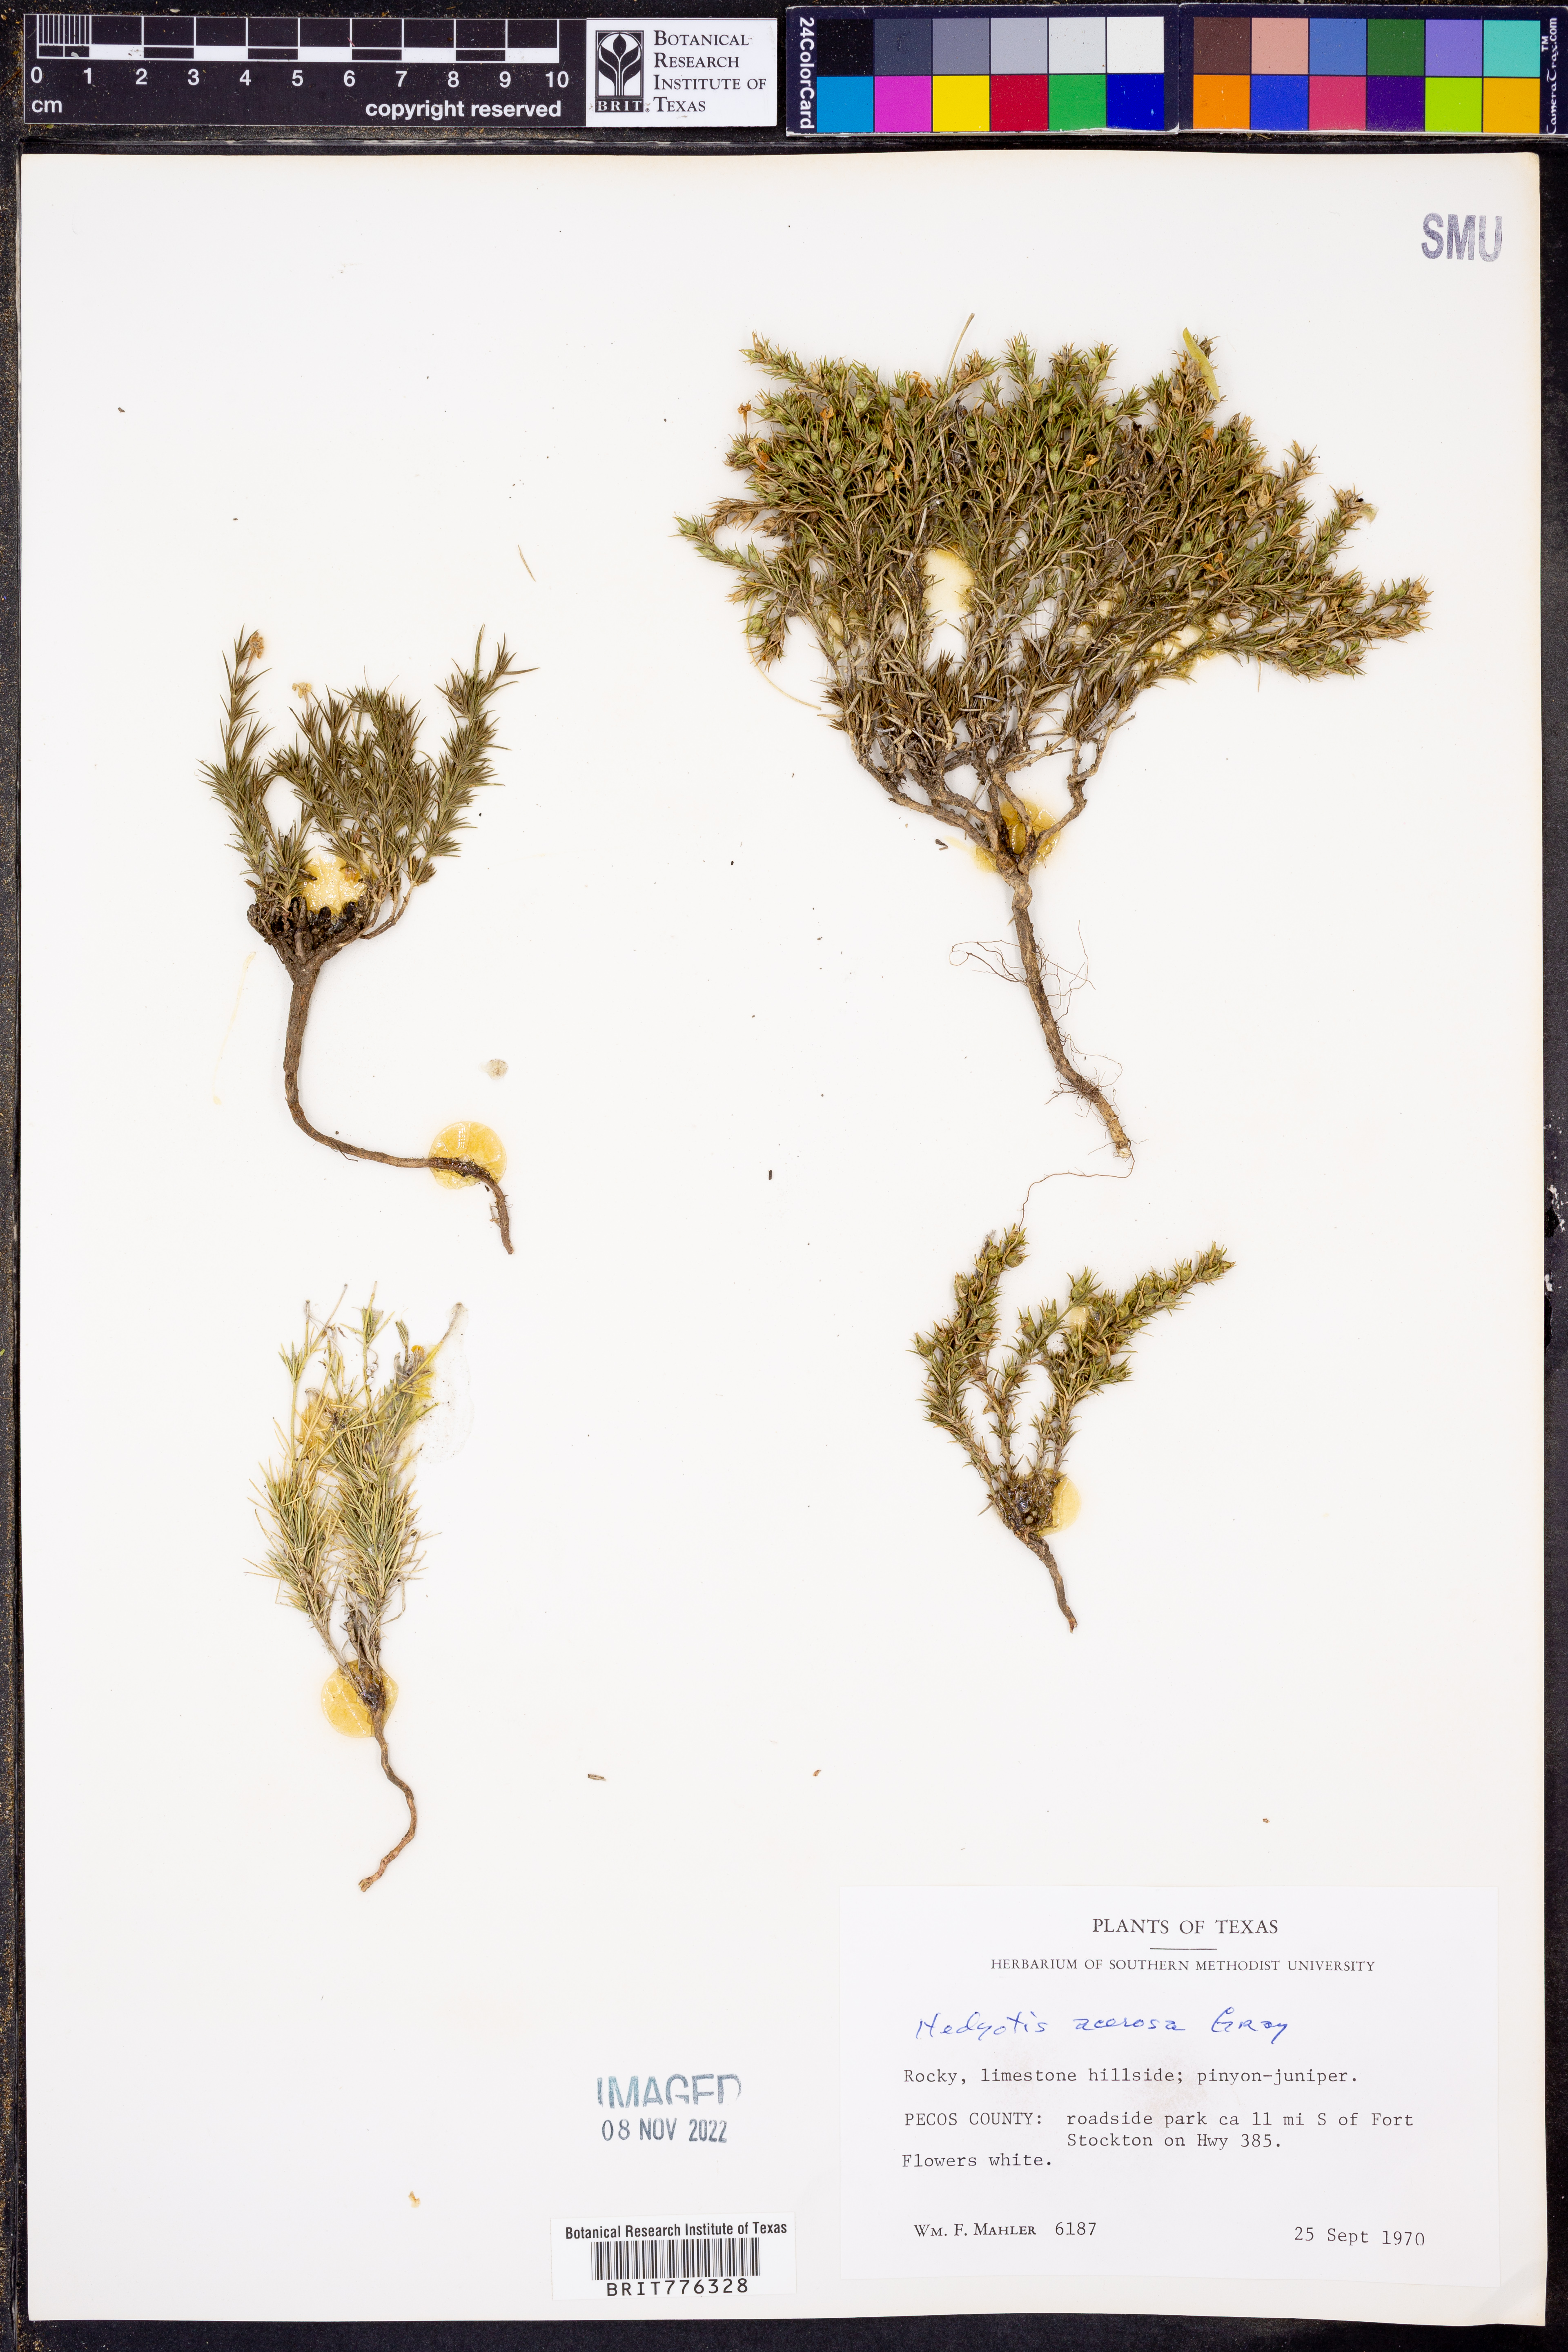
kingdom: Plantae
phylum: Tracheophyta
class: Magnoliopsida
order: Gentianales
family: Rubiaceae
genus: Houstonia
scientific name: Houstonia acerosa
